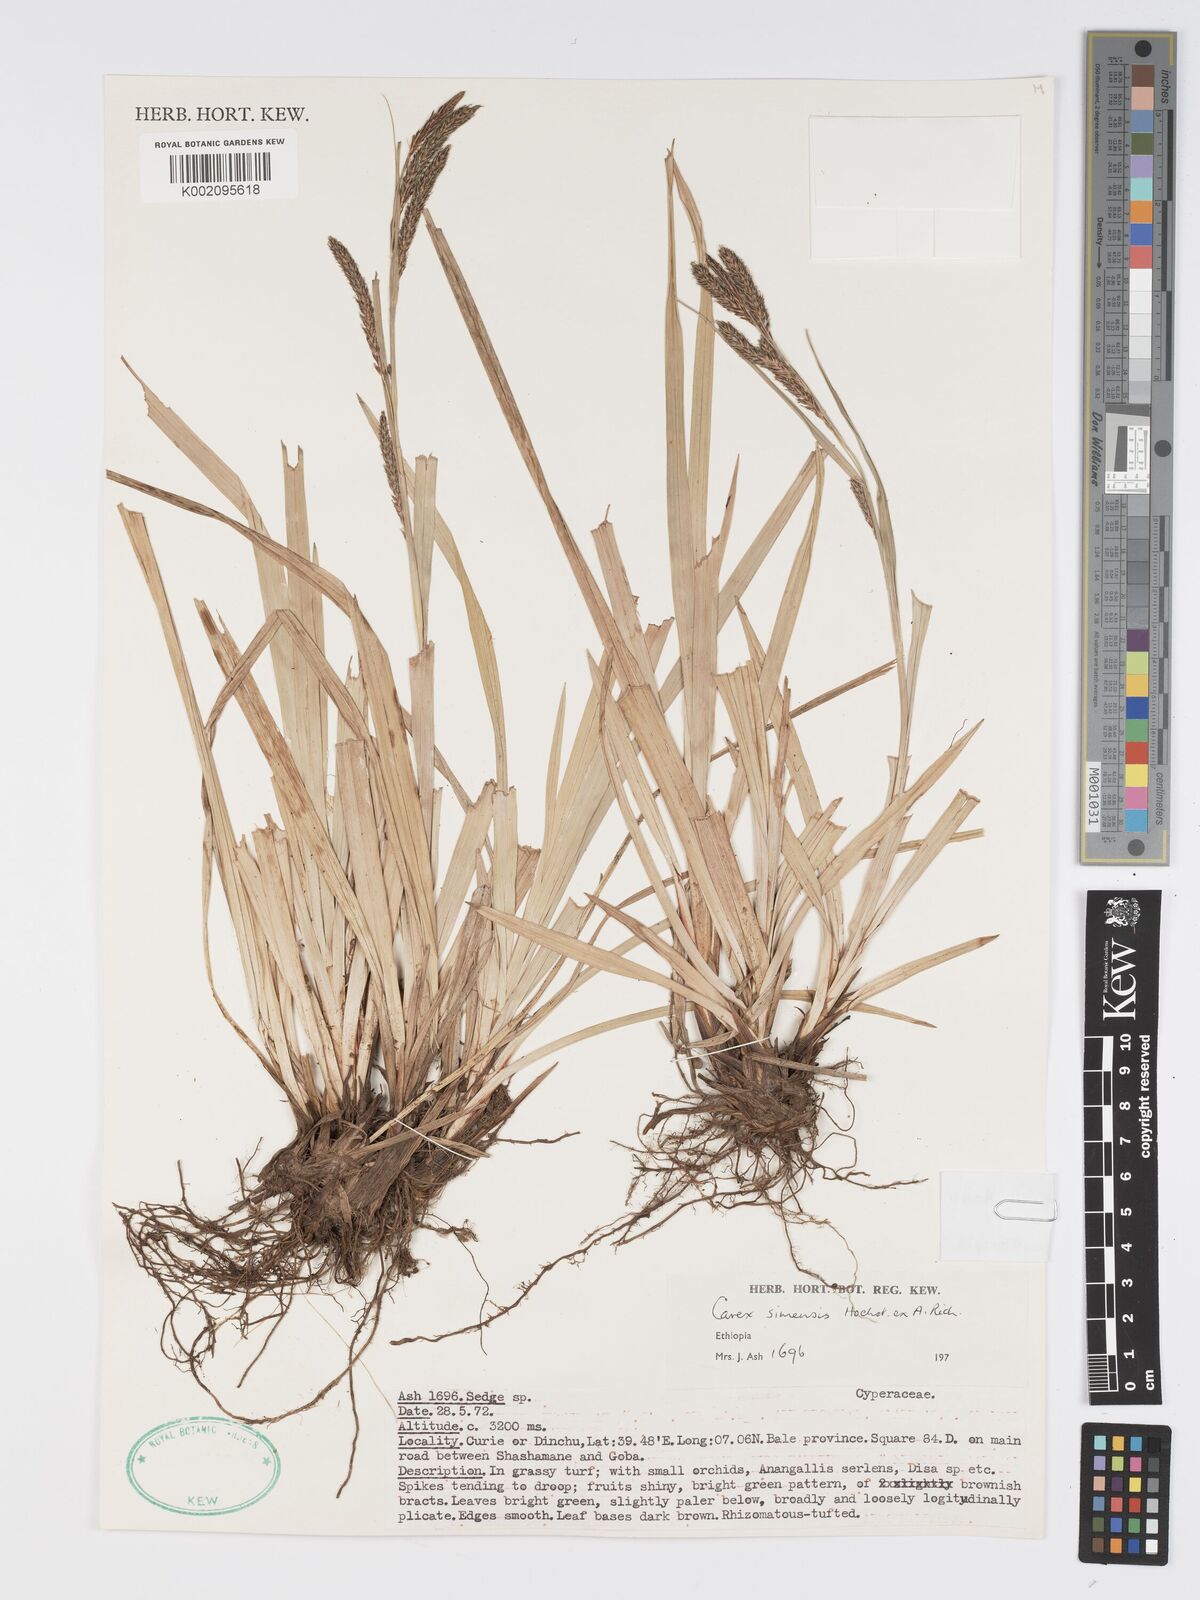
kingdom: Plantae
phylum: Tracheophyta
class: Liliopsida
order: Poales
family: Cyperaceae
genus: Carex
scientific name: Carex simensis
